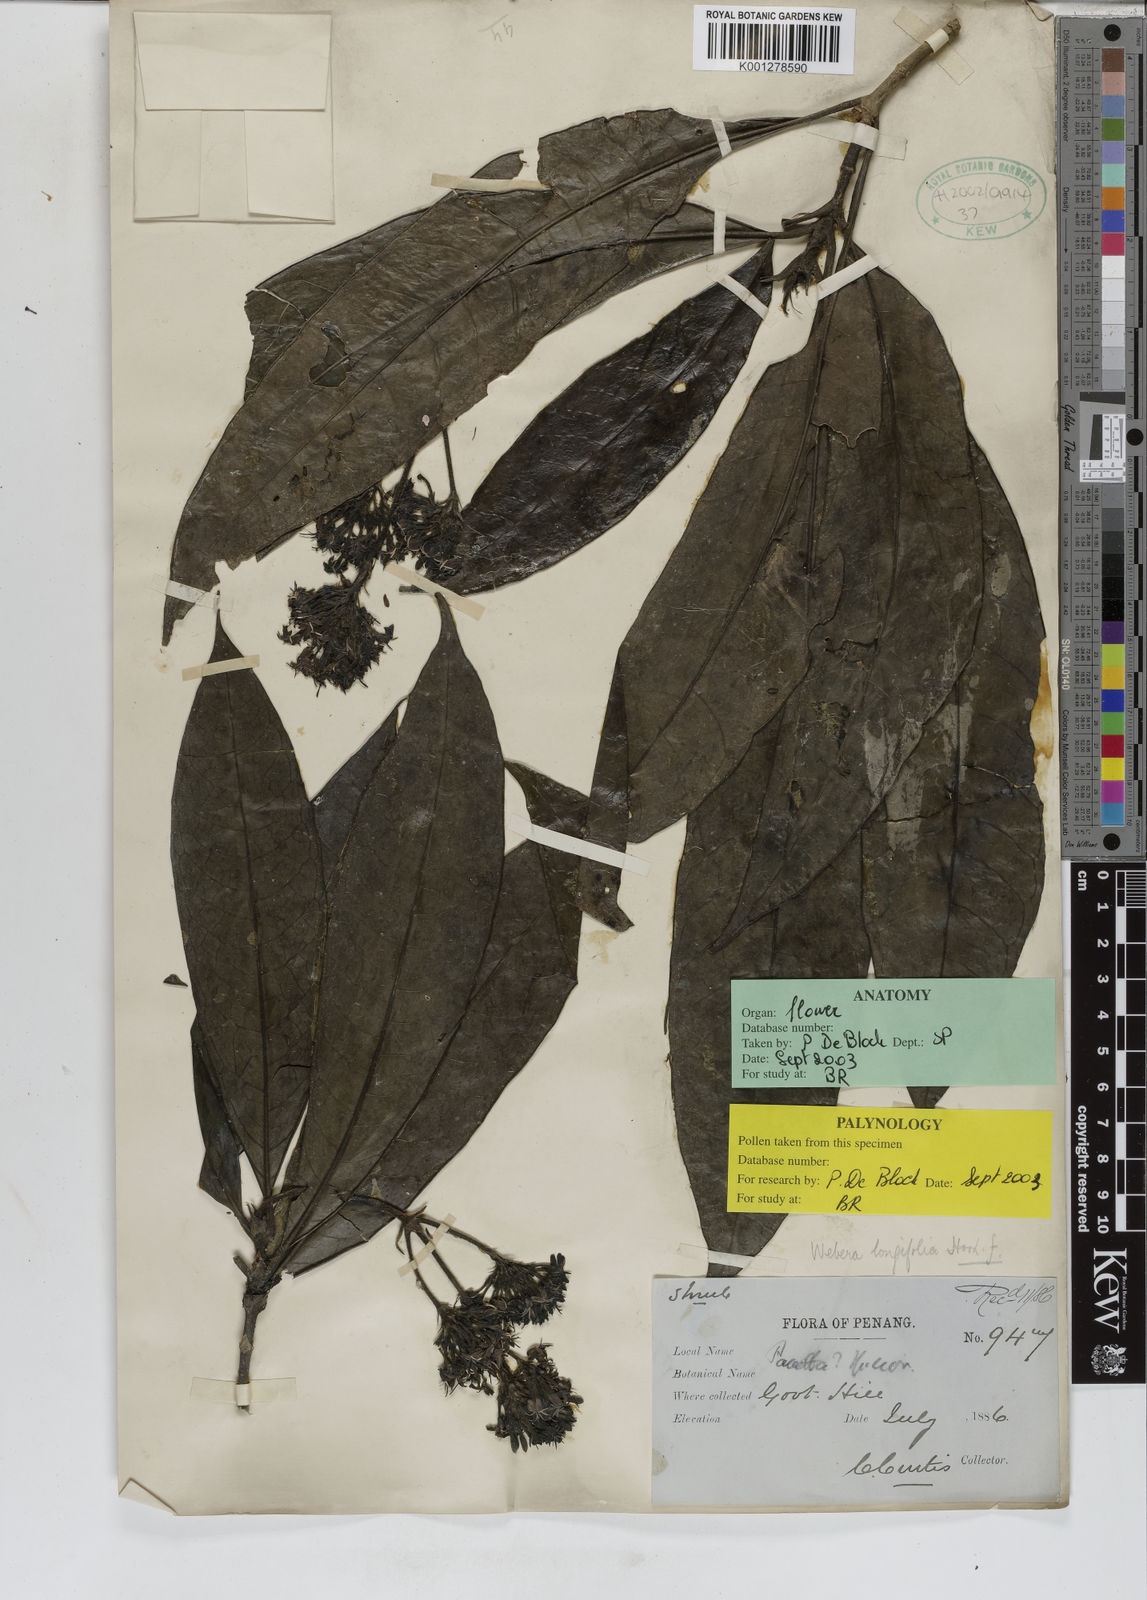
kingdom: Plantae
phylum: Tracheophyta
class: Magnoliopsida
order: Gentianales
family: Rubiaceae
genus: Tarenna
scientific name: Tarenna longifolia
